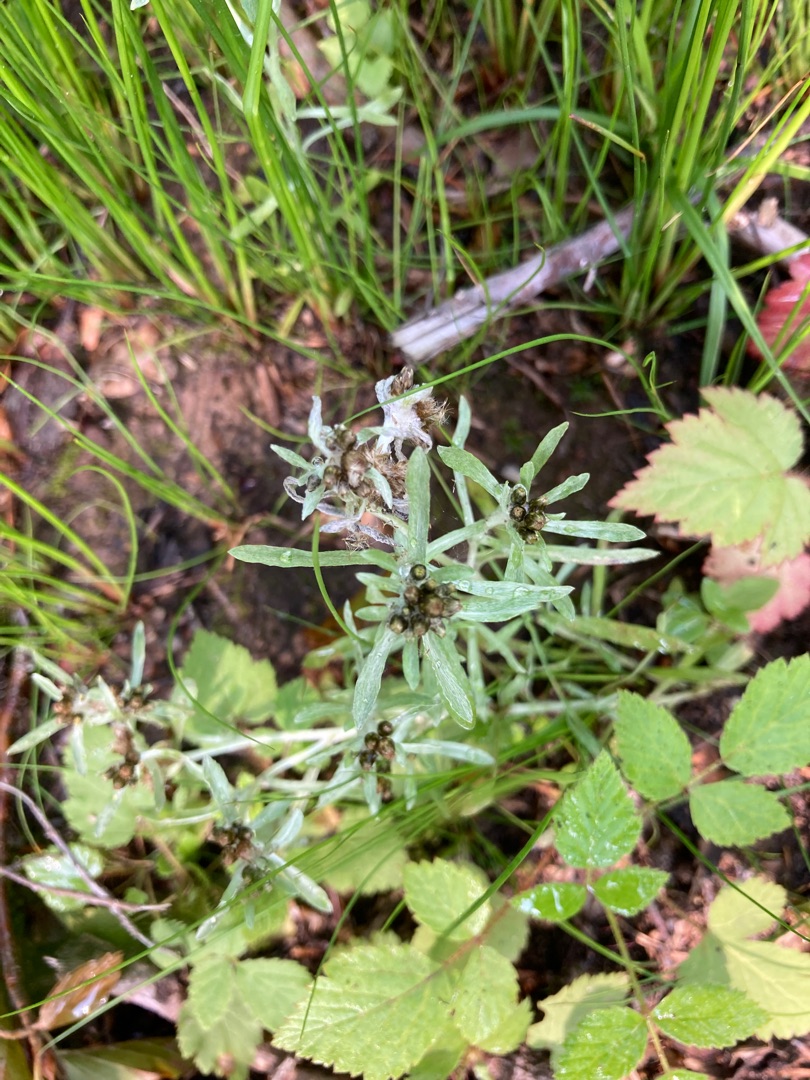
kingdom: Plantae
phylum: Tracheophyta
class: Magnoliopsida
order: Asterales
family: Asteraceae
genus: Gnaphalium
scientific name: Gnaphalium uliginosum
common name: Sump-evighedsblomst
